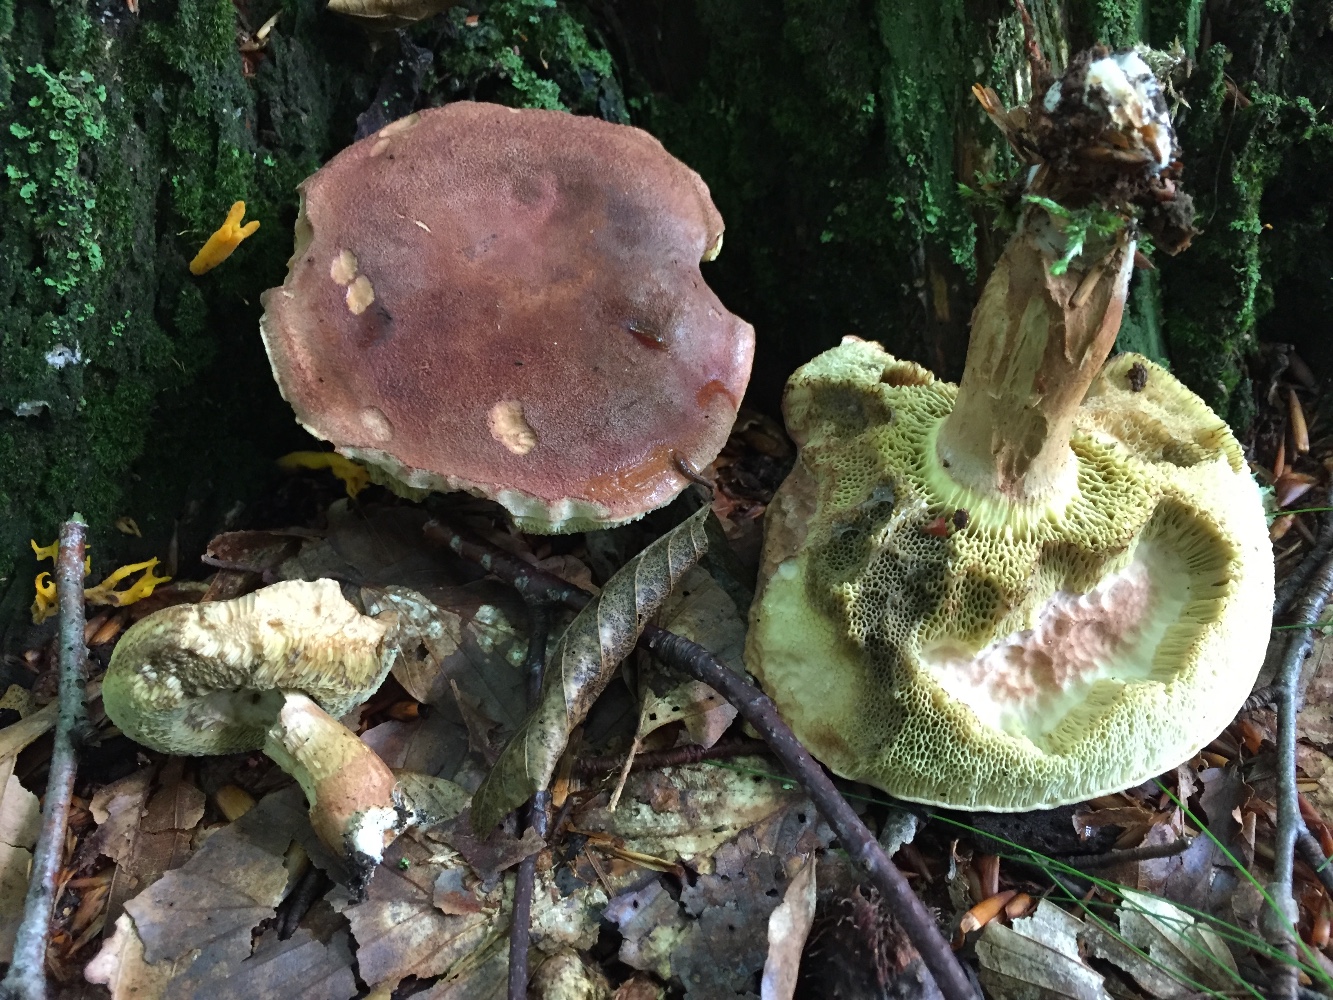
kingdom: Fungi
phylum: Basidiomycota
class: Agaricomycetes
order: Boletales
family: Boletaceae
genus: Imleria
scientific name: Imleria badia
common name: brunstokket rørhat
